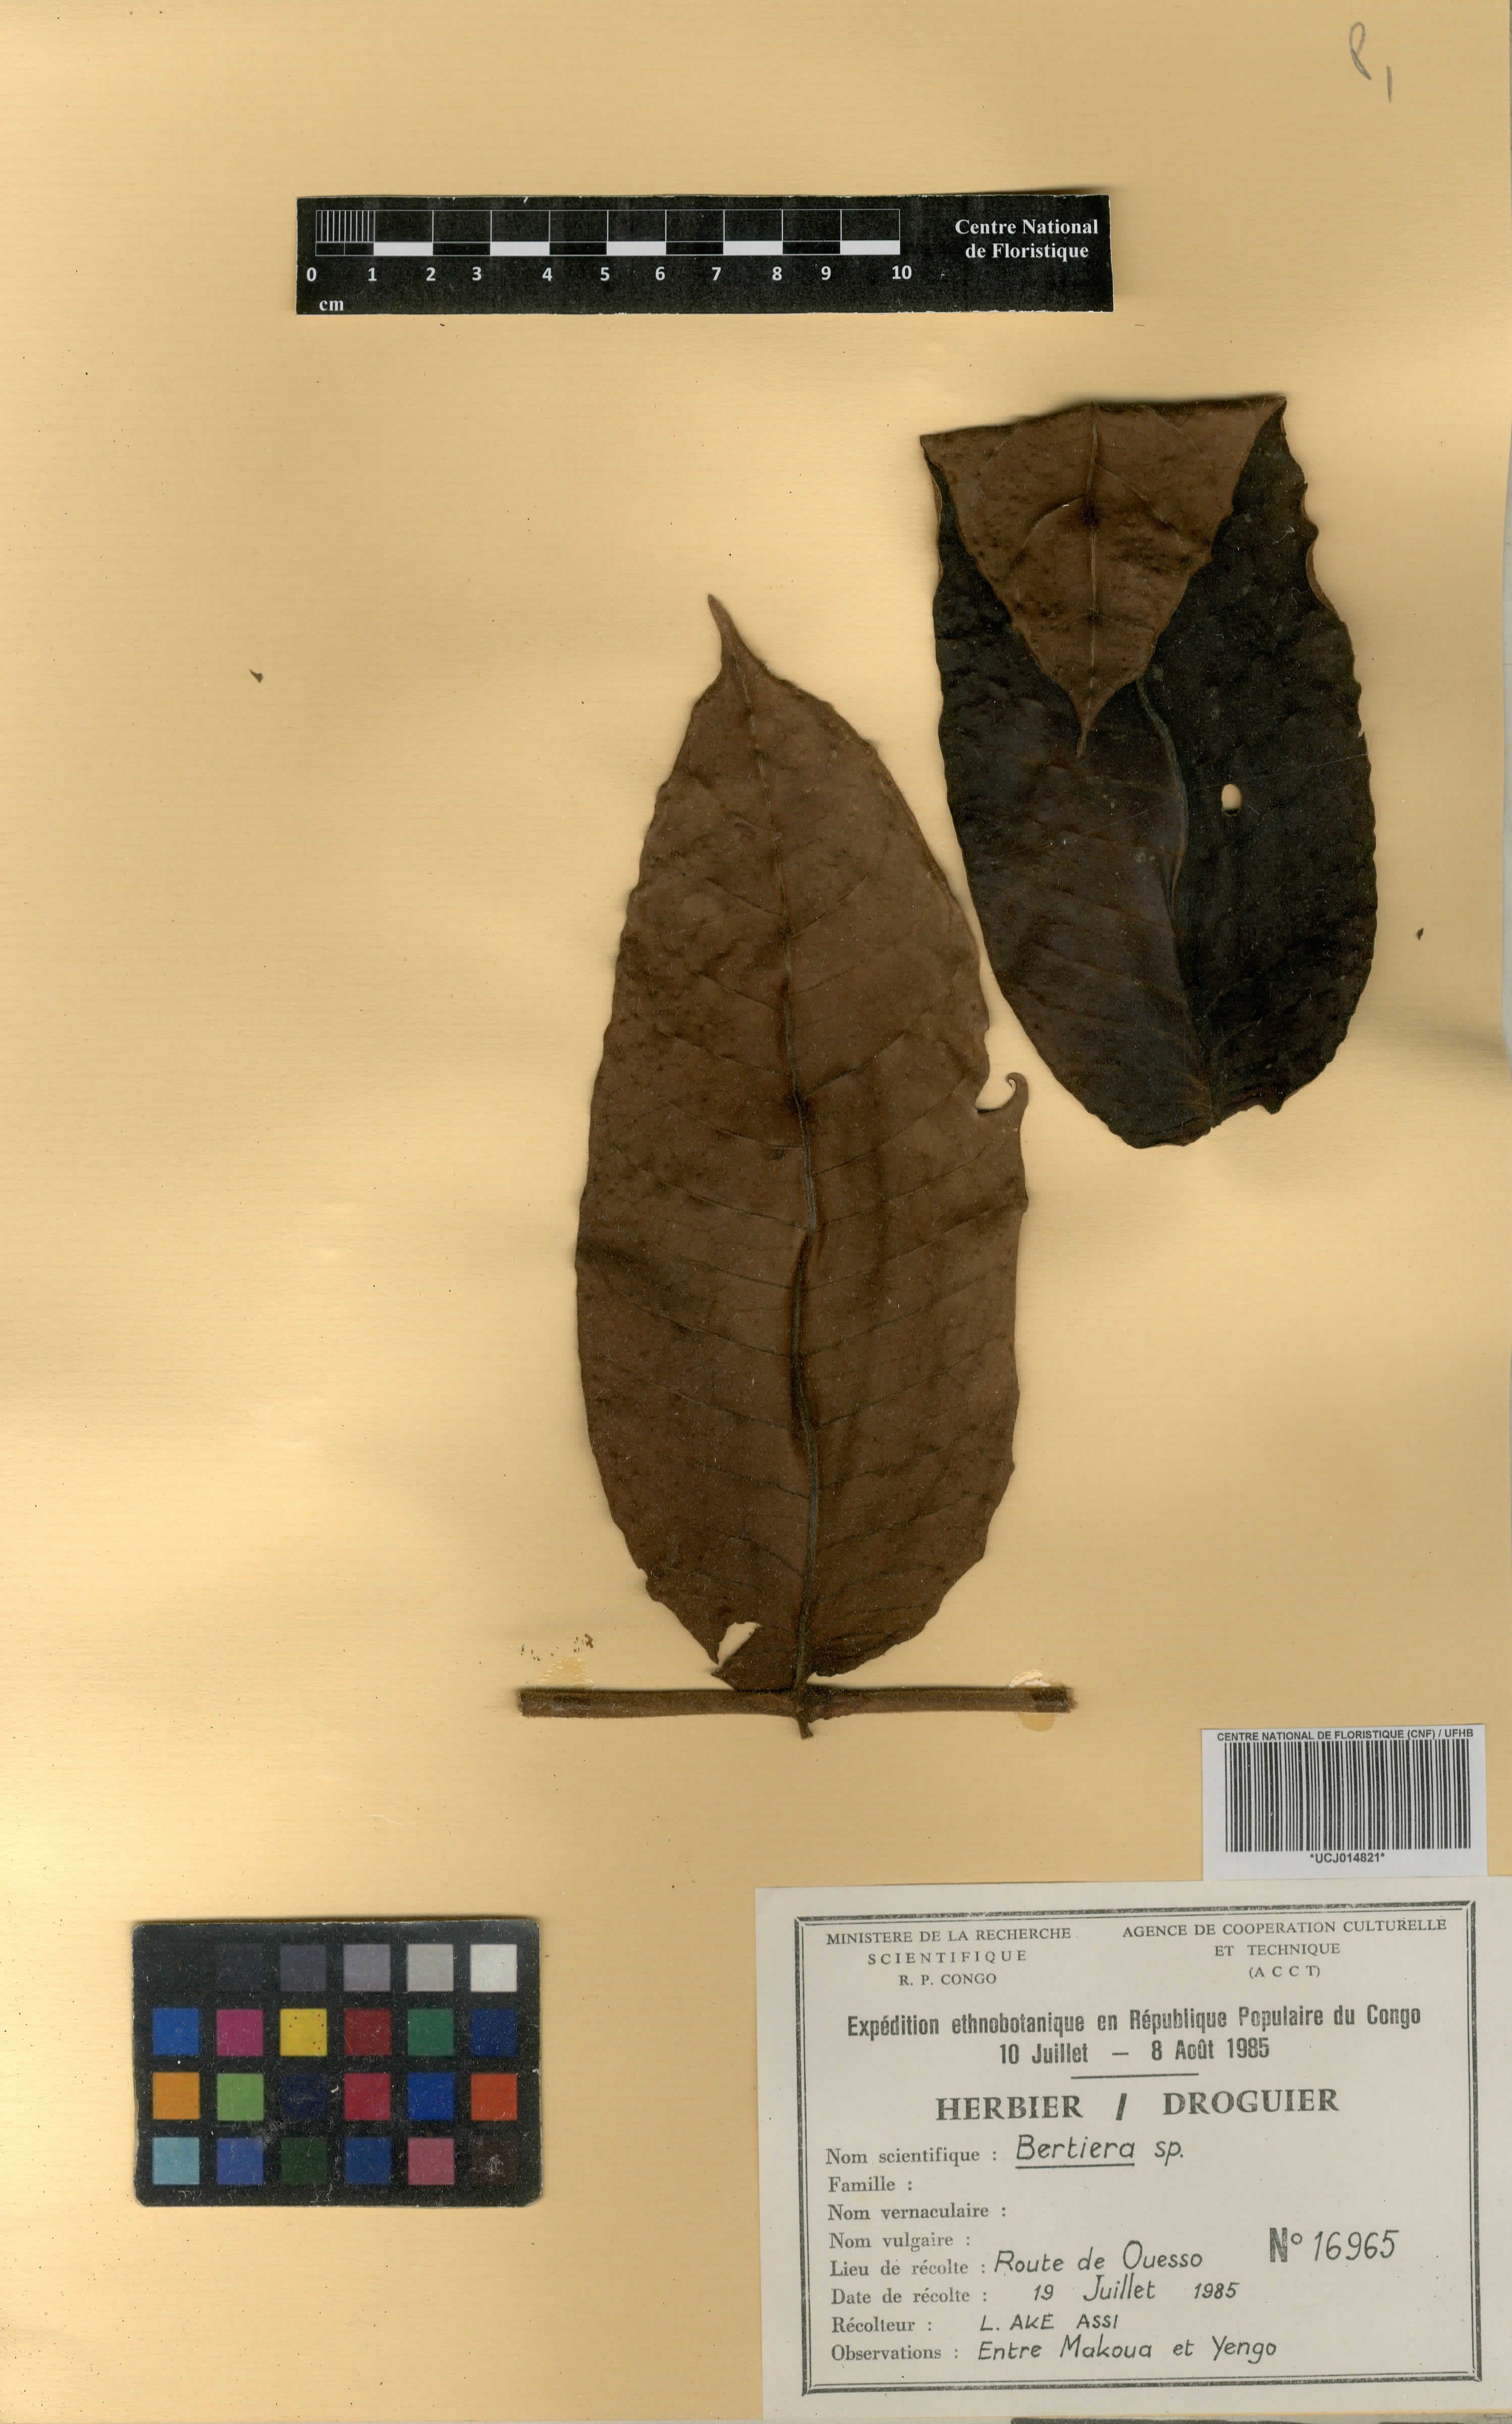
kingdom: Plantae
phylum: Tracheophyta
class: Magnoliopsida
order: Gentianales
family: Rubiaceae
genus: Bertiera
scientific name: Bertiera
